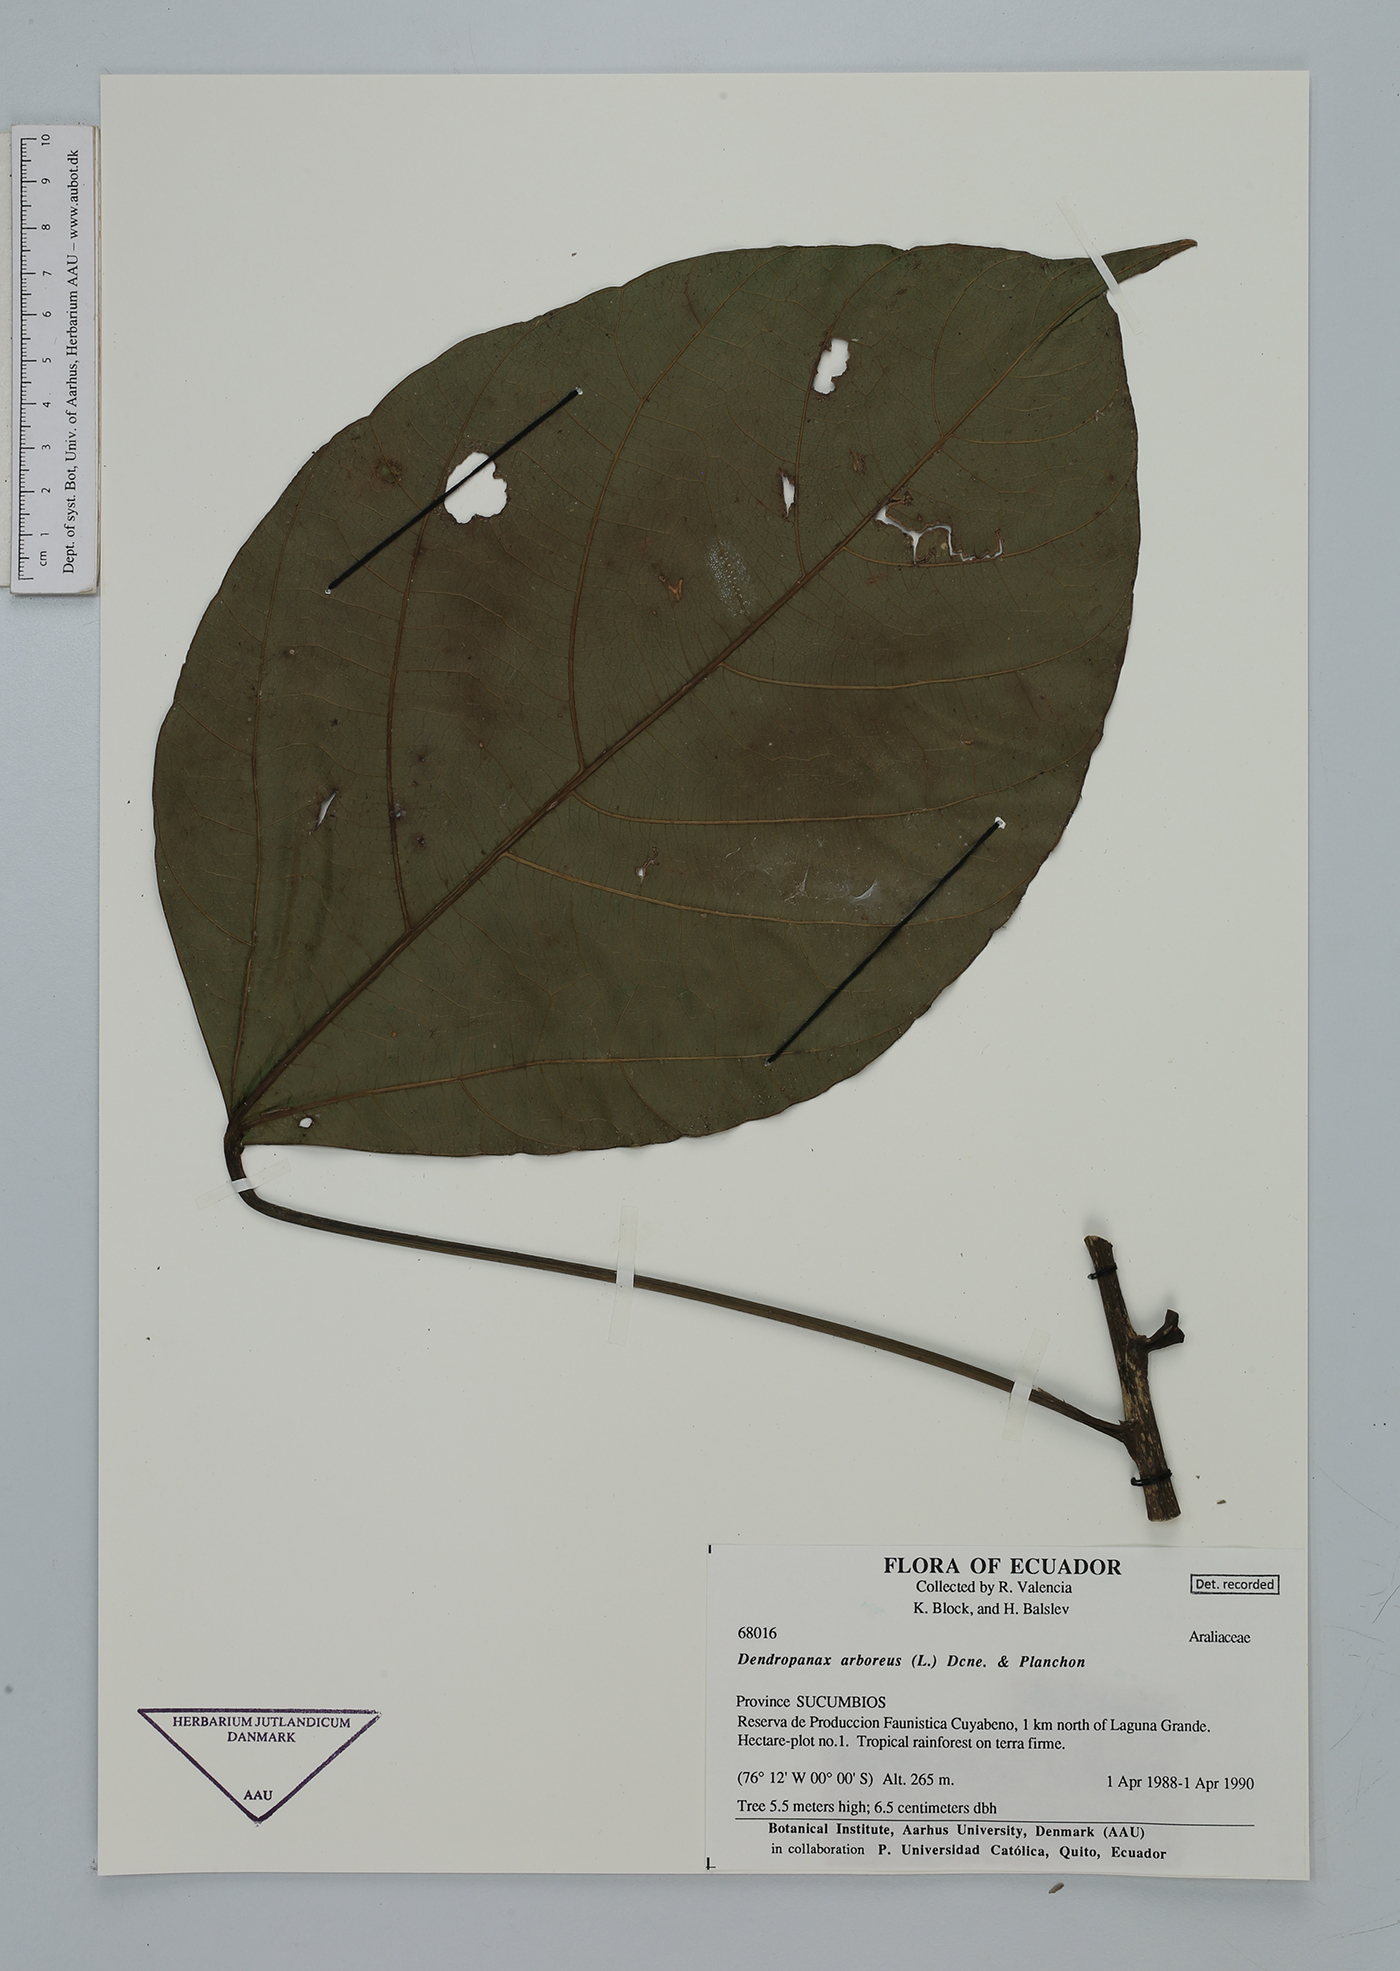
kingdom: Plantae
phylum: Tracheophyta
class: Magnoliopsida
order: Apiales
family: Araliaceae
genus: Dendropanax
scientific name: Dendropanax arboreus
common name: Potato-wood
